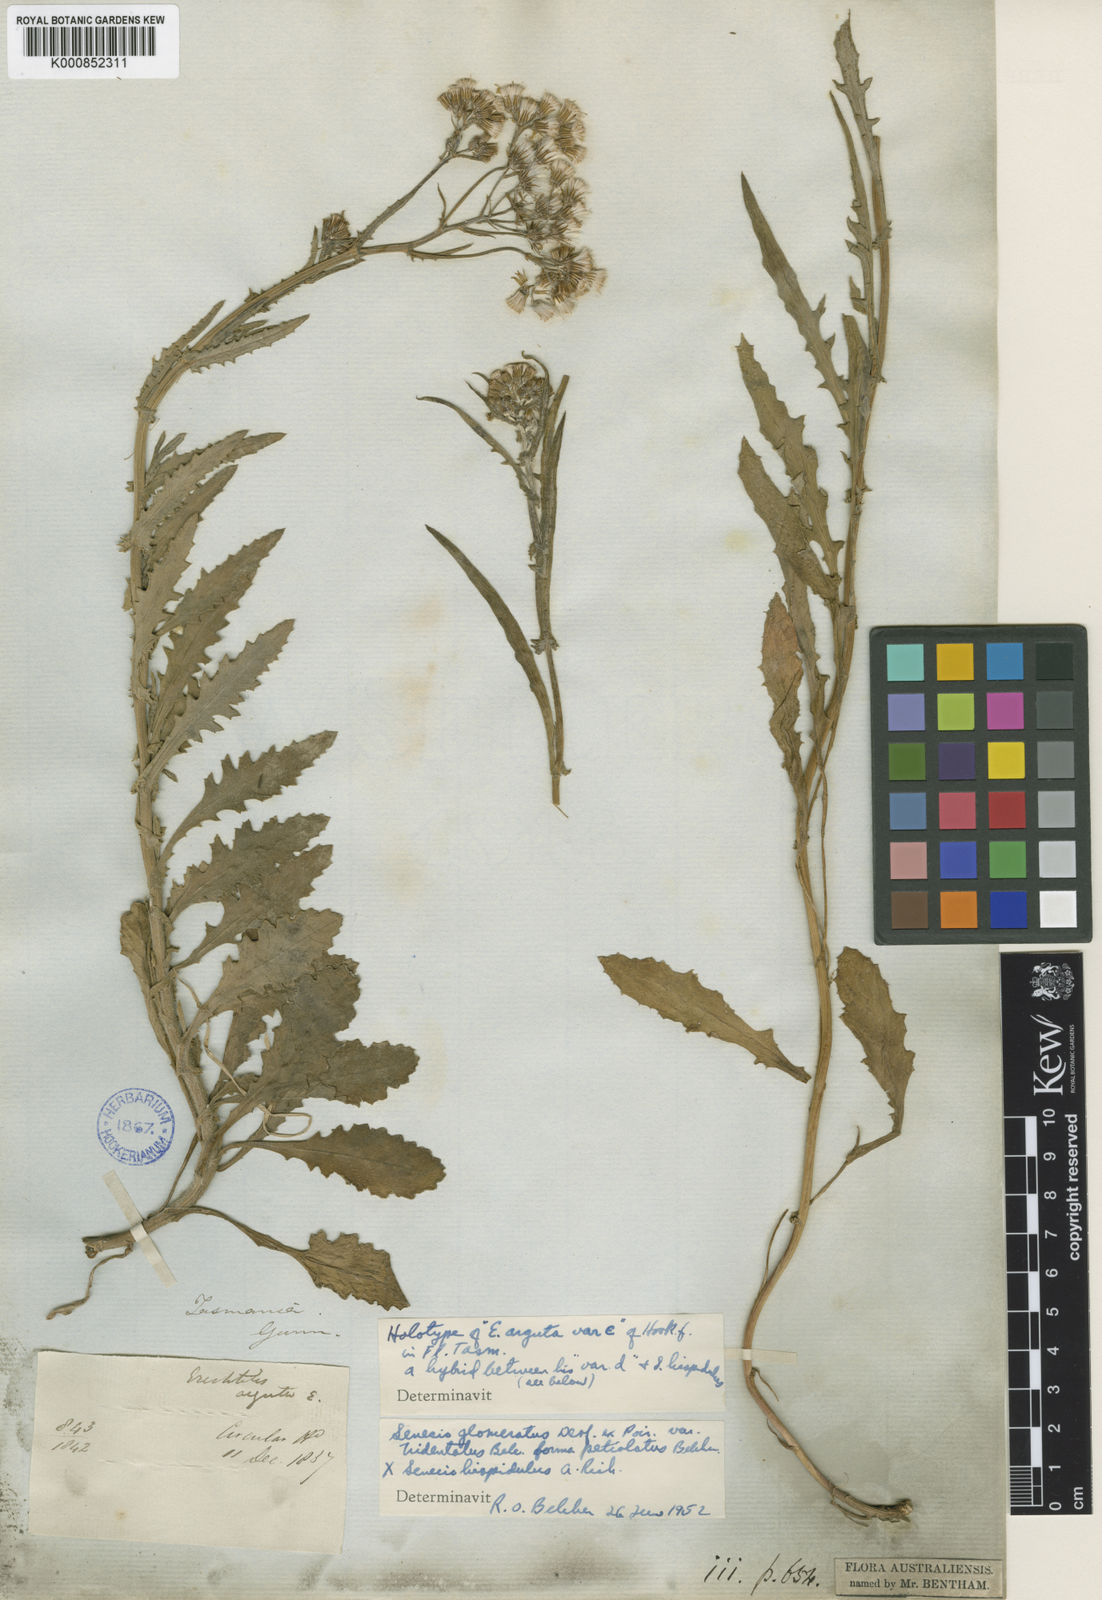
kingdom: Plantae
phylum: Tracheophyta
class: Magnoliopsida
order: Asterales
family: Asteraceae
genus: Senecio
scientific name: Senecio hispidulus
